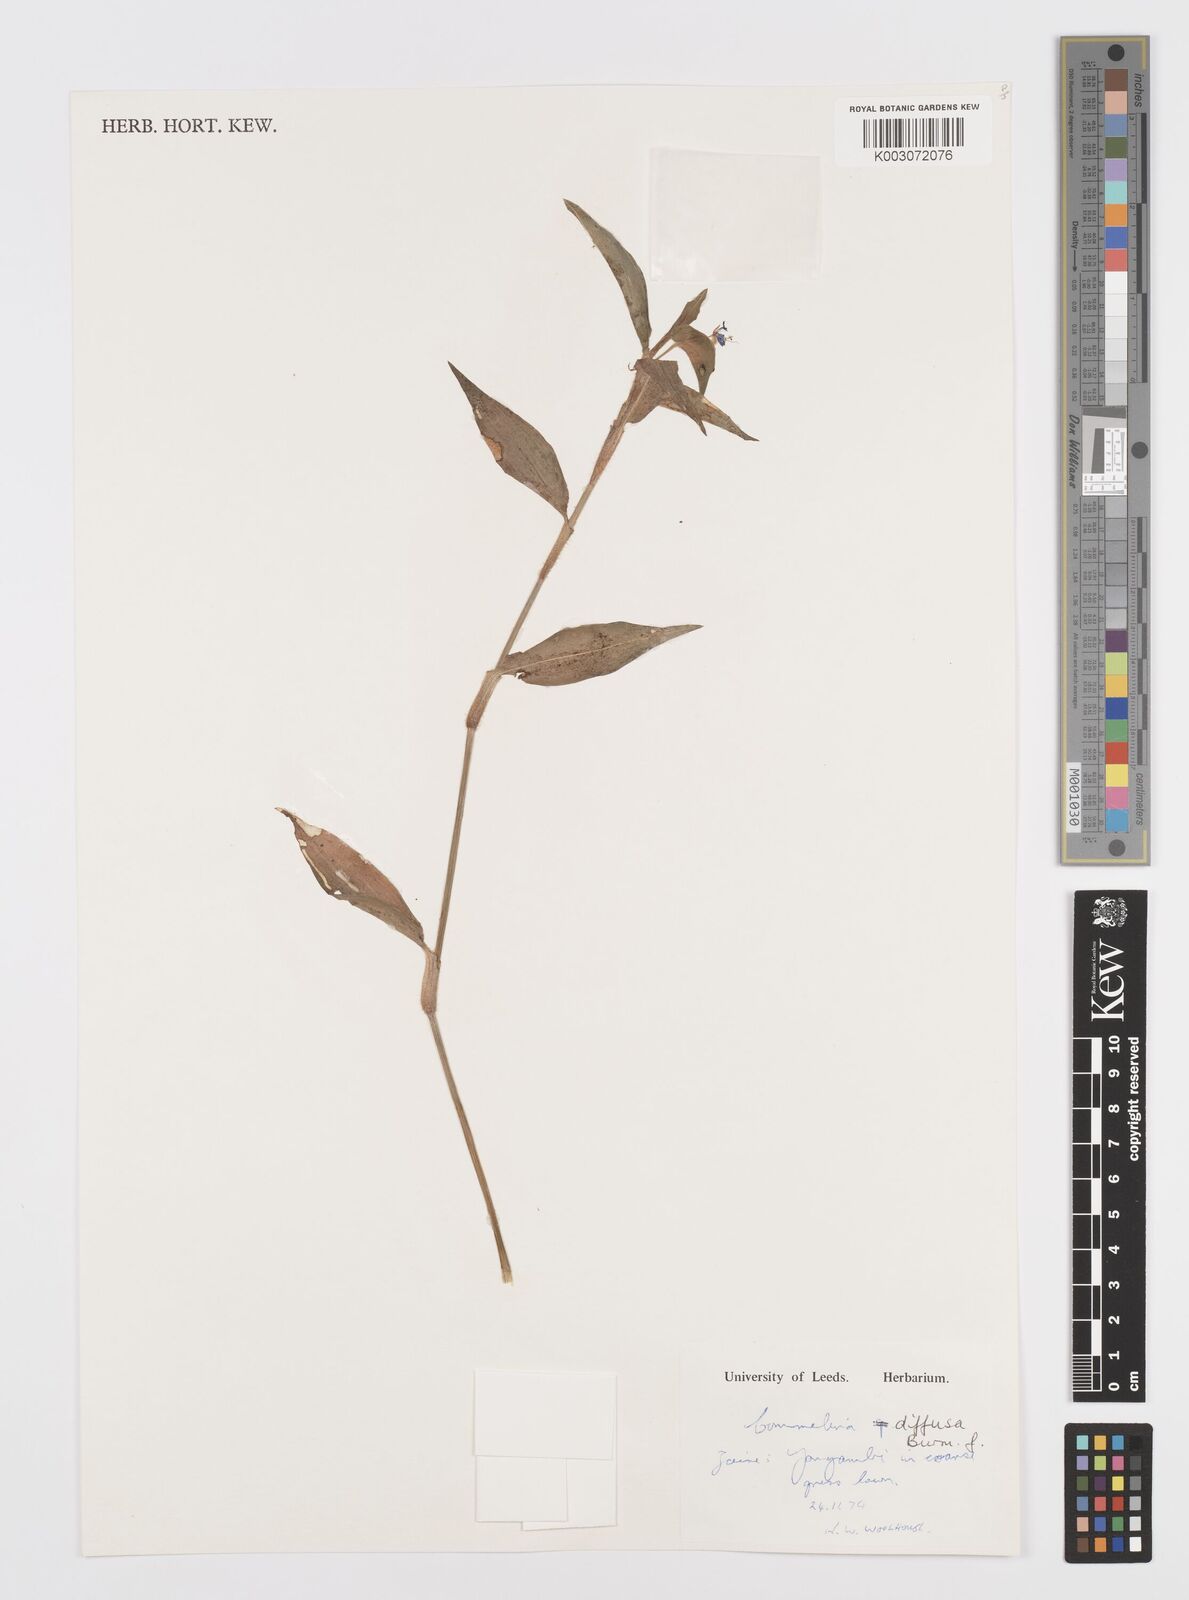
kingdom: Plantae
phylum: Tracheophyta
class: Liliopsida
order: Commelinales
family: Commelinaceae
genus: Commelina
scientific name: Commelina diffusa
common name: Climbing dayflower
